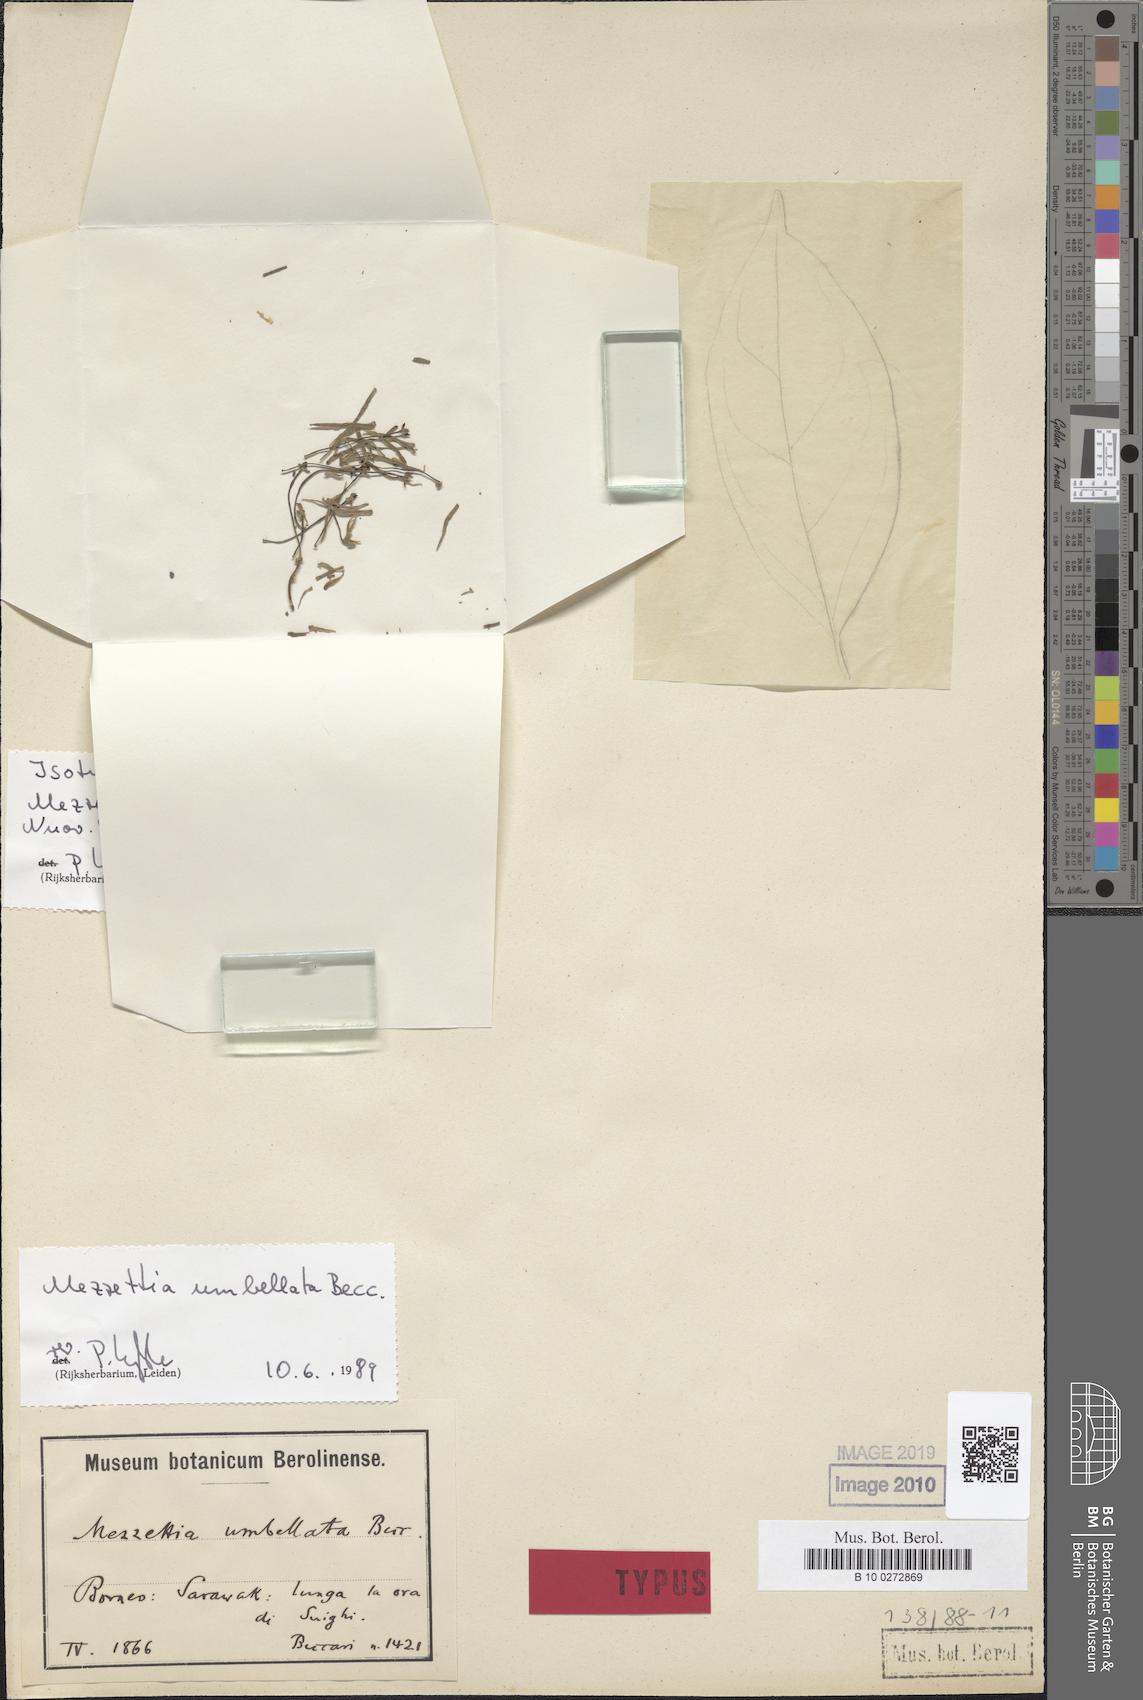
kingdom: Plantae
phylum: Tracheophyta
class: Magnoliopsida
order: Magnoliales
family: Annonaceae
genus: Mezzettia
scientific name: Mezzettia umbellata
